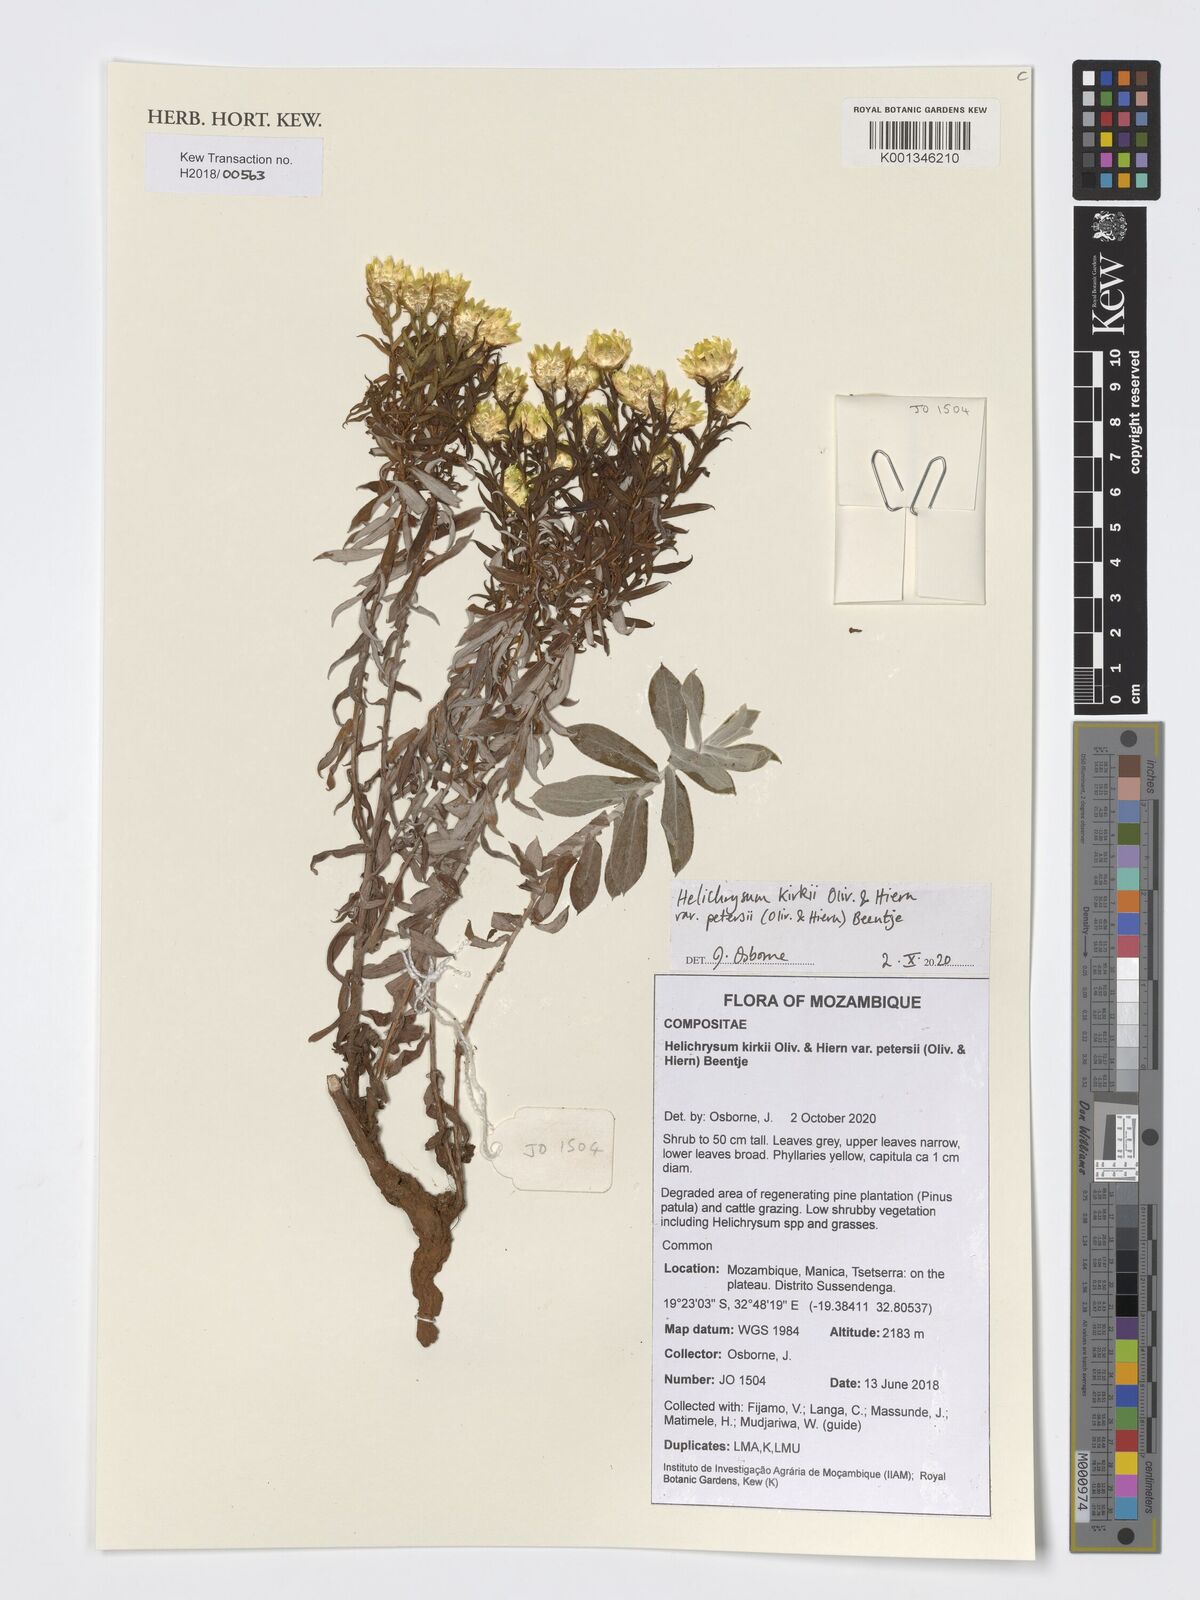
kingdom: Plantae
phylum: Tracheophyta
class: Magnoliopsida
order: Asterales
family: Asteraceae
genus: Helichrysum
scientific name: Helichrysum kirkii
